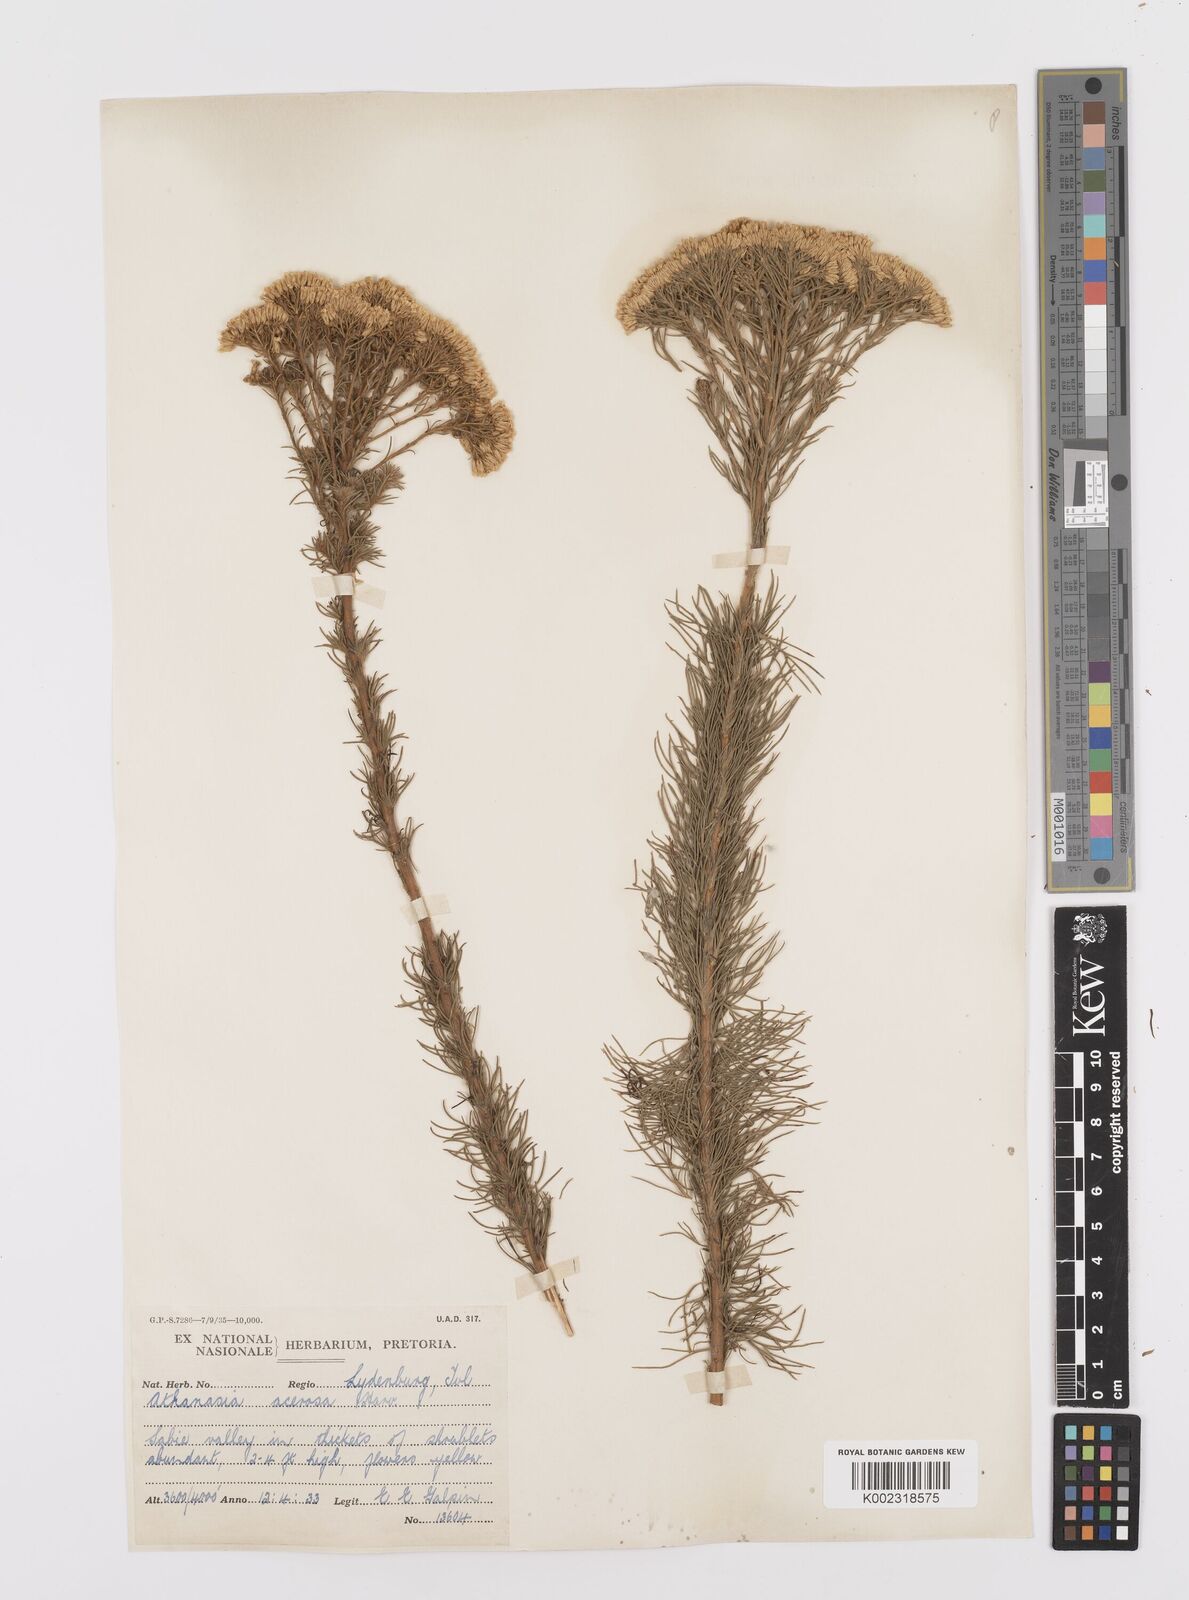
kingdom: Plantae
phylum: Tracheophyta
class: Magnoliopsida
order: Asterales
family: Asteraceae
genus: Phymaspermum
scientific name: Phymaspermum acerosum
